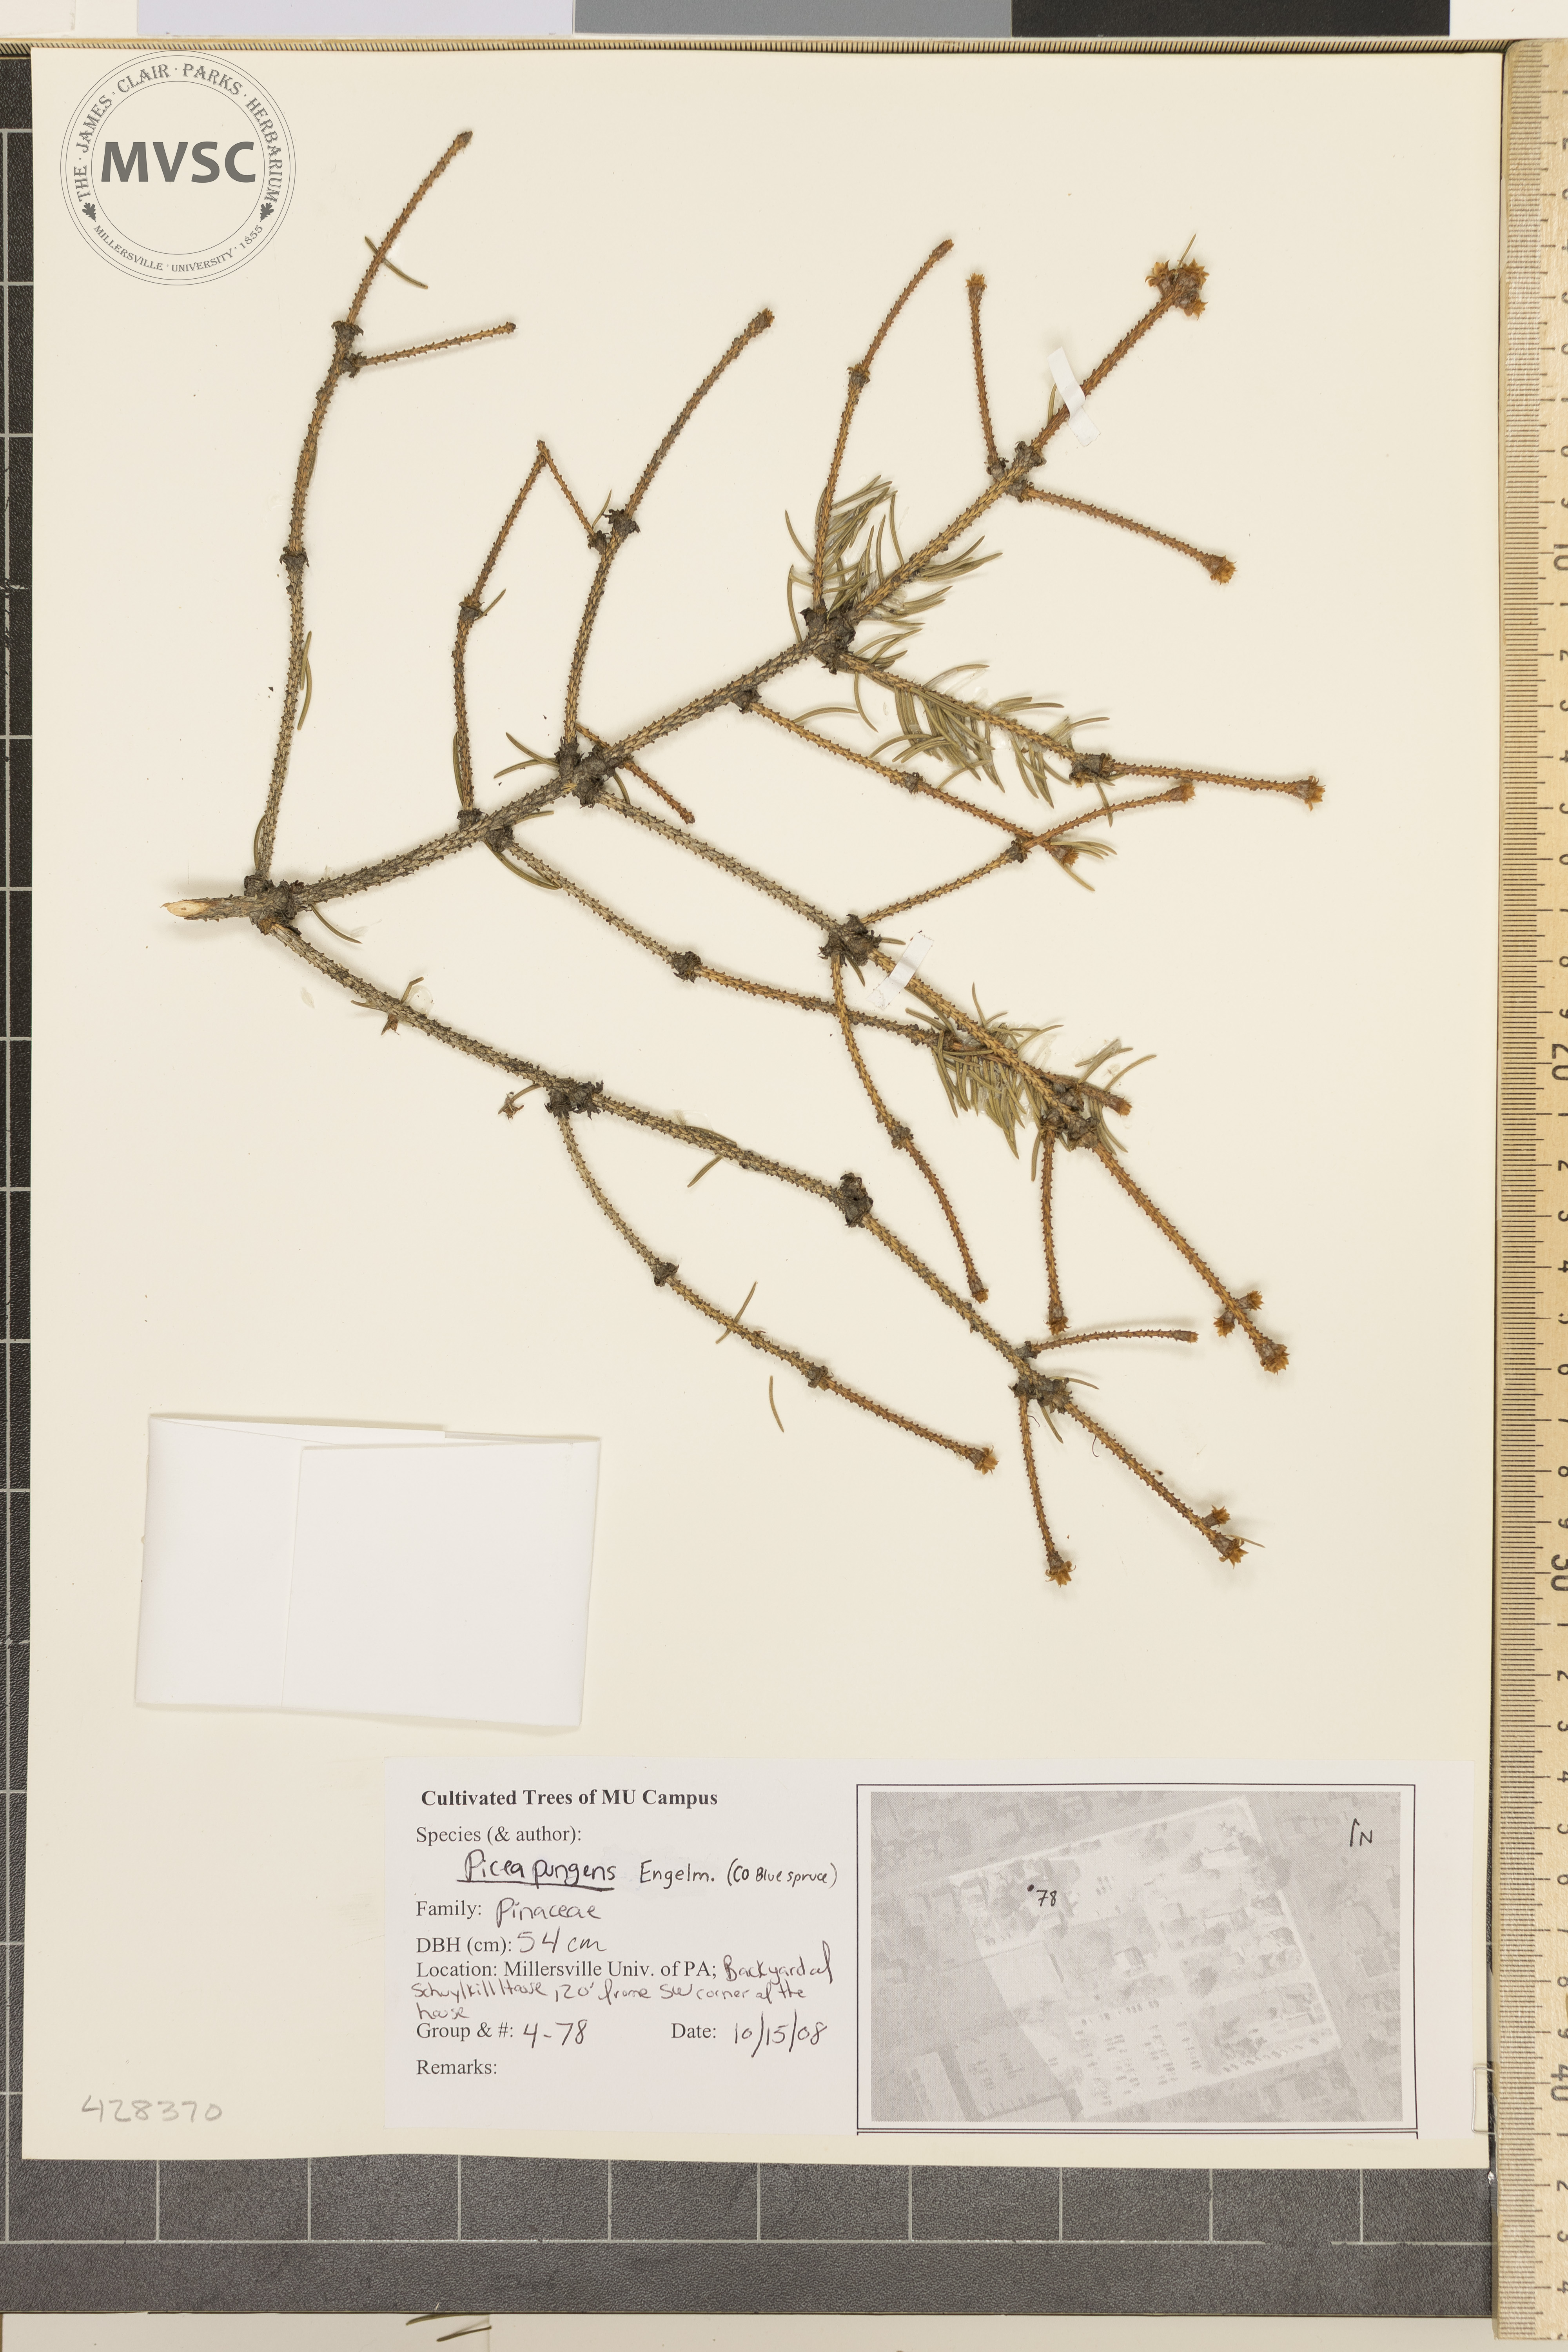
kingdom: Plantae
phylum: Tracheophyta
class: Pinopsida
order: Pinales
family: Pinaceae
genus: Picea
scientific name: Picea pungens
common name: Colorado Blue Spruce
